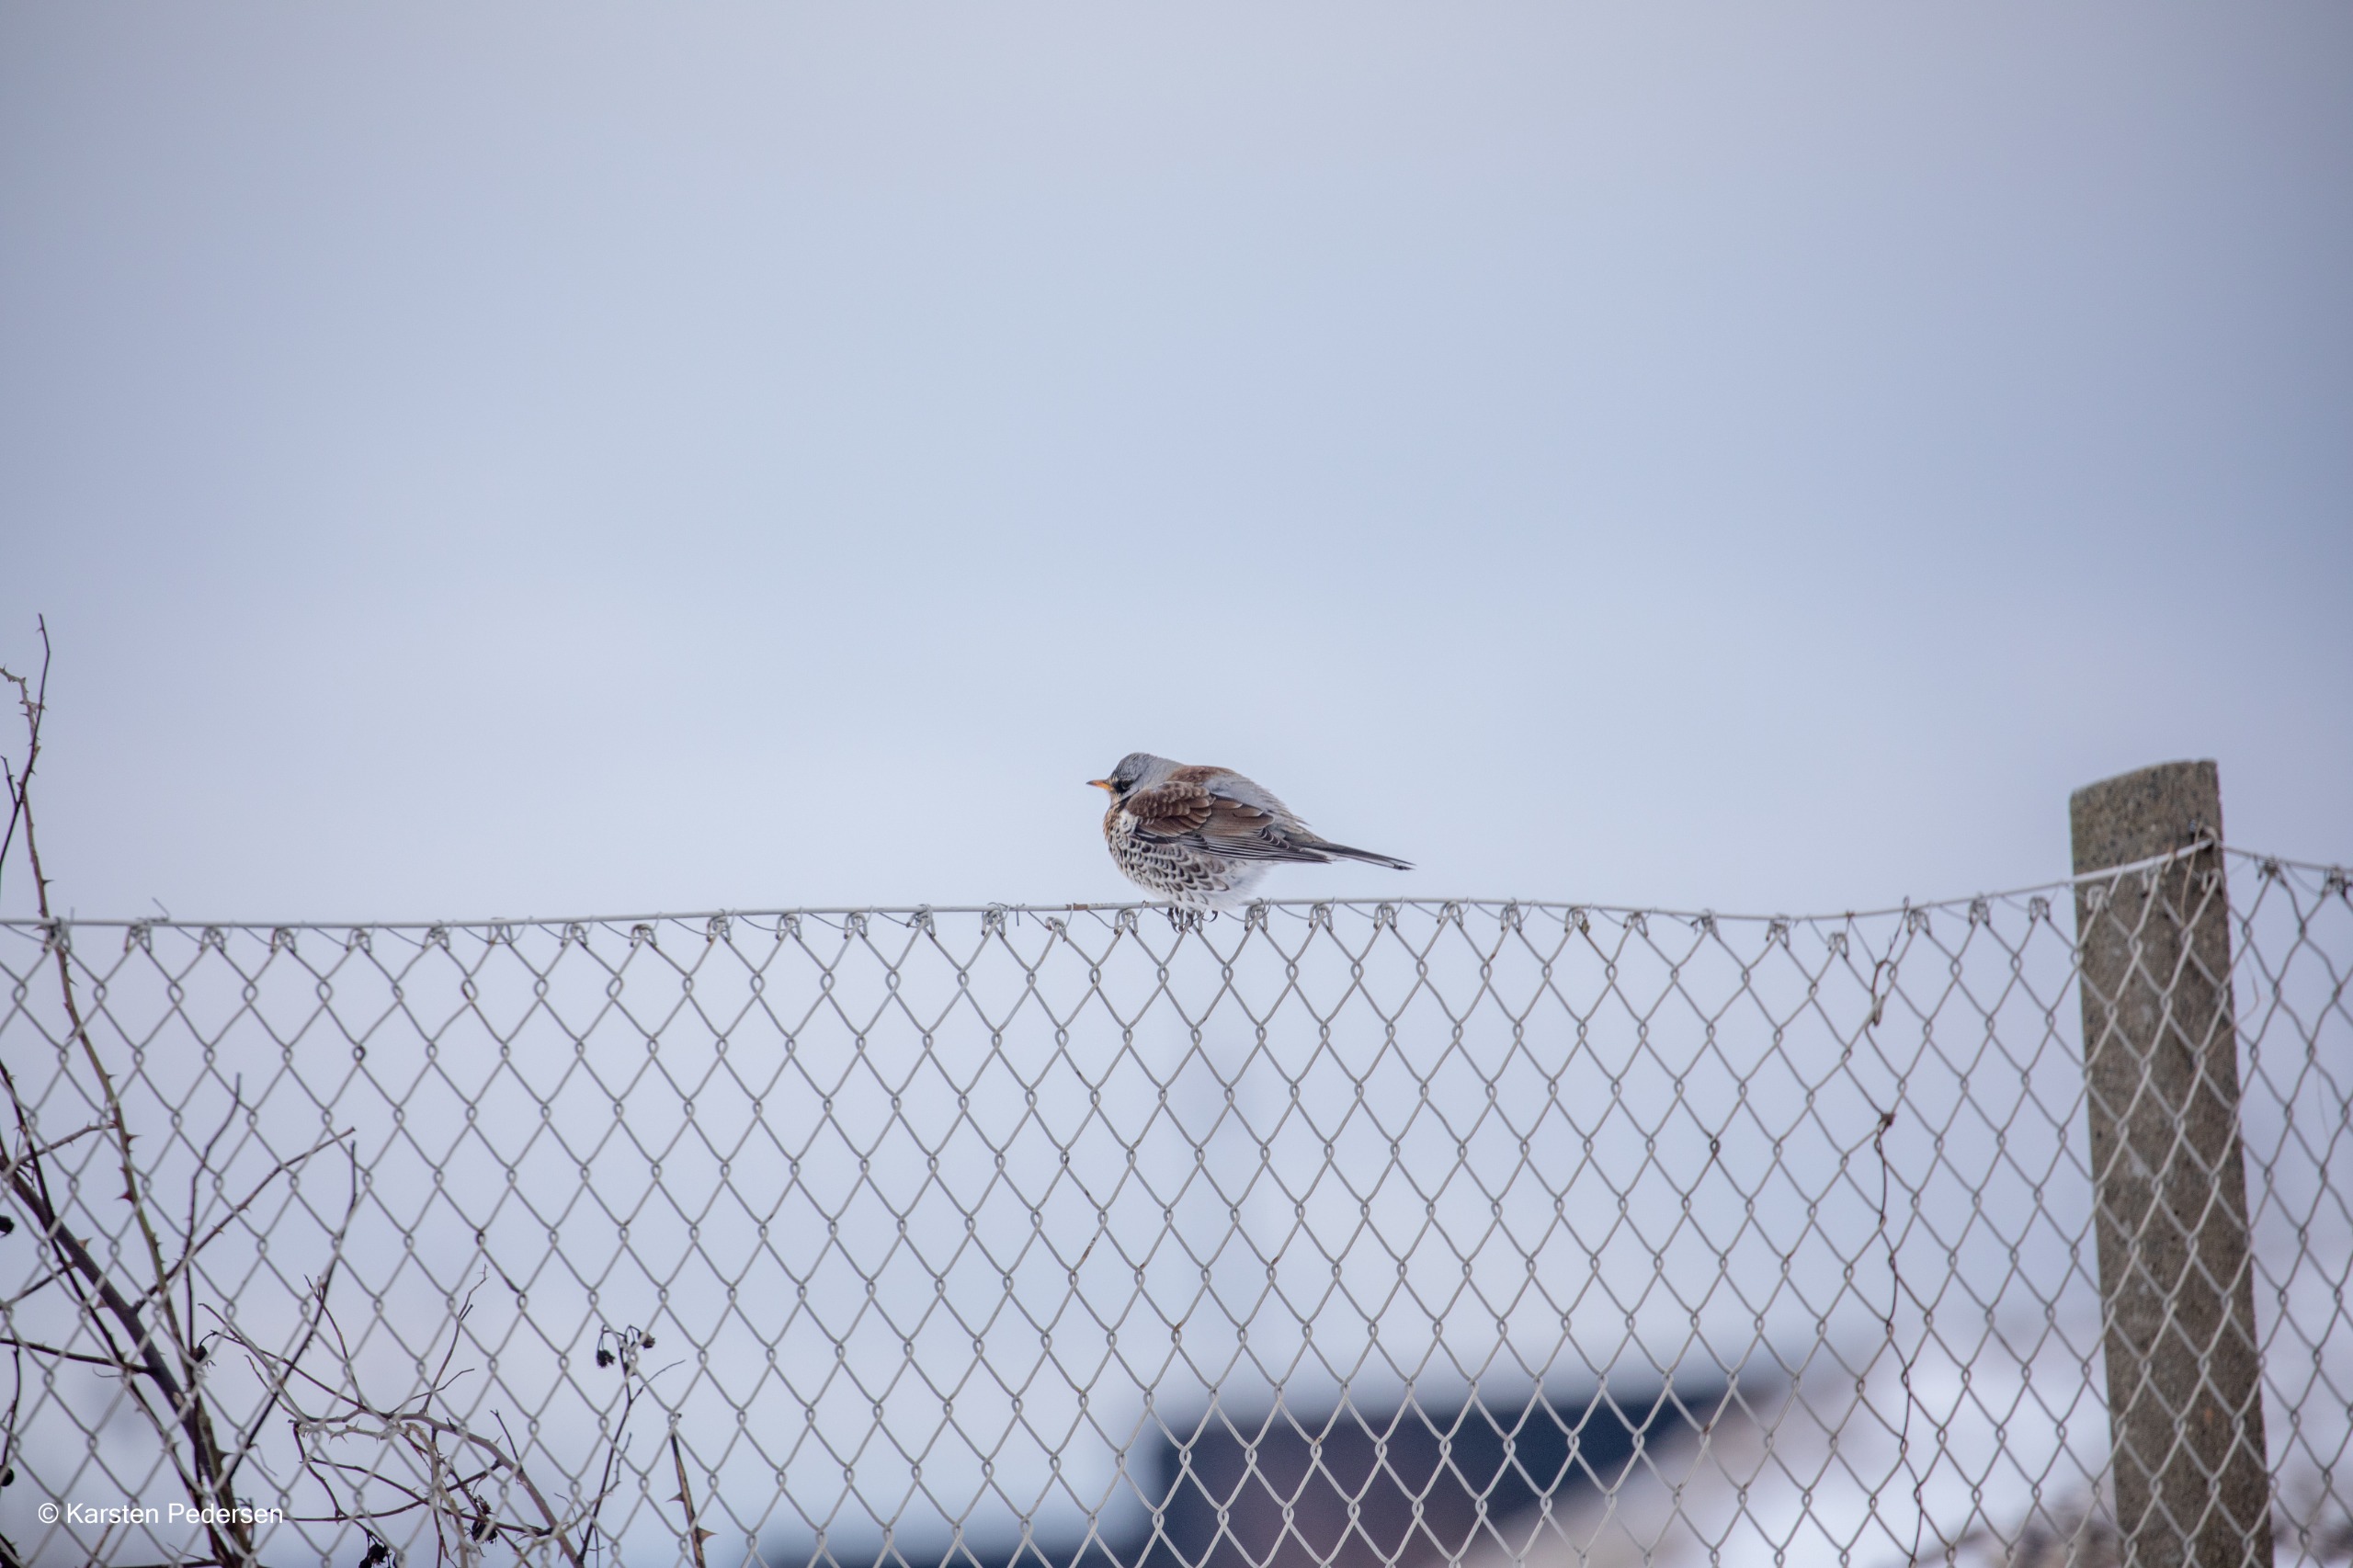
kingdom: Animalia
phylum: Chordata
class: Aves
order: Passeriformes
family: Turdidae
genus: Turdus
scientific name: Turdus pilaris
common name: Sjagger
